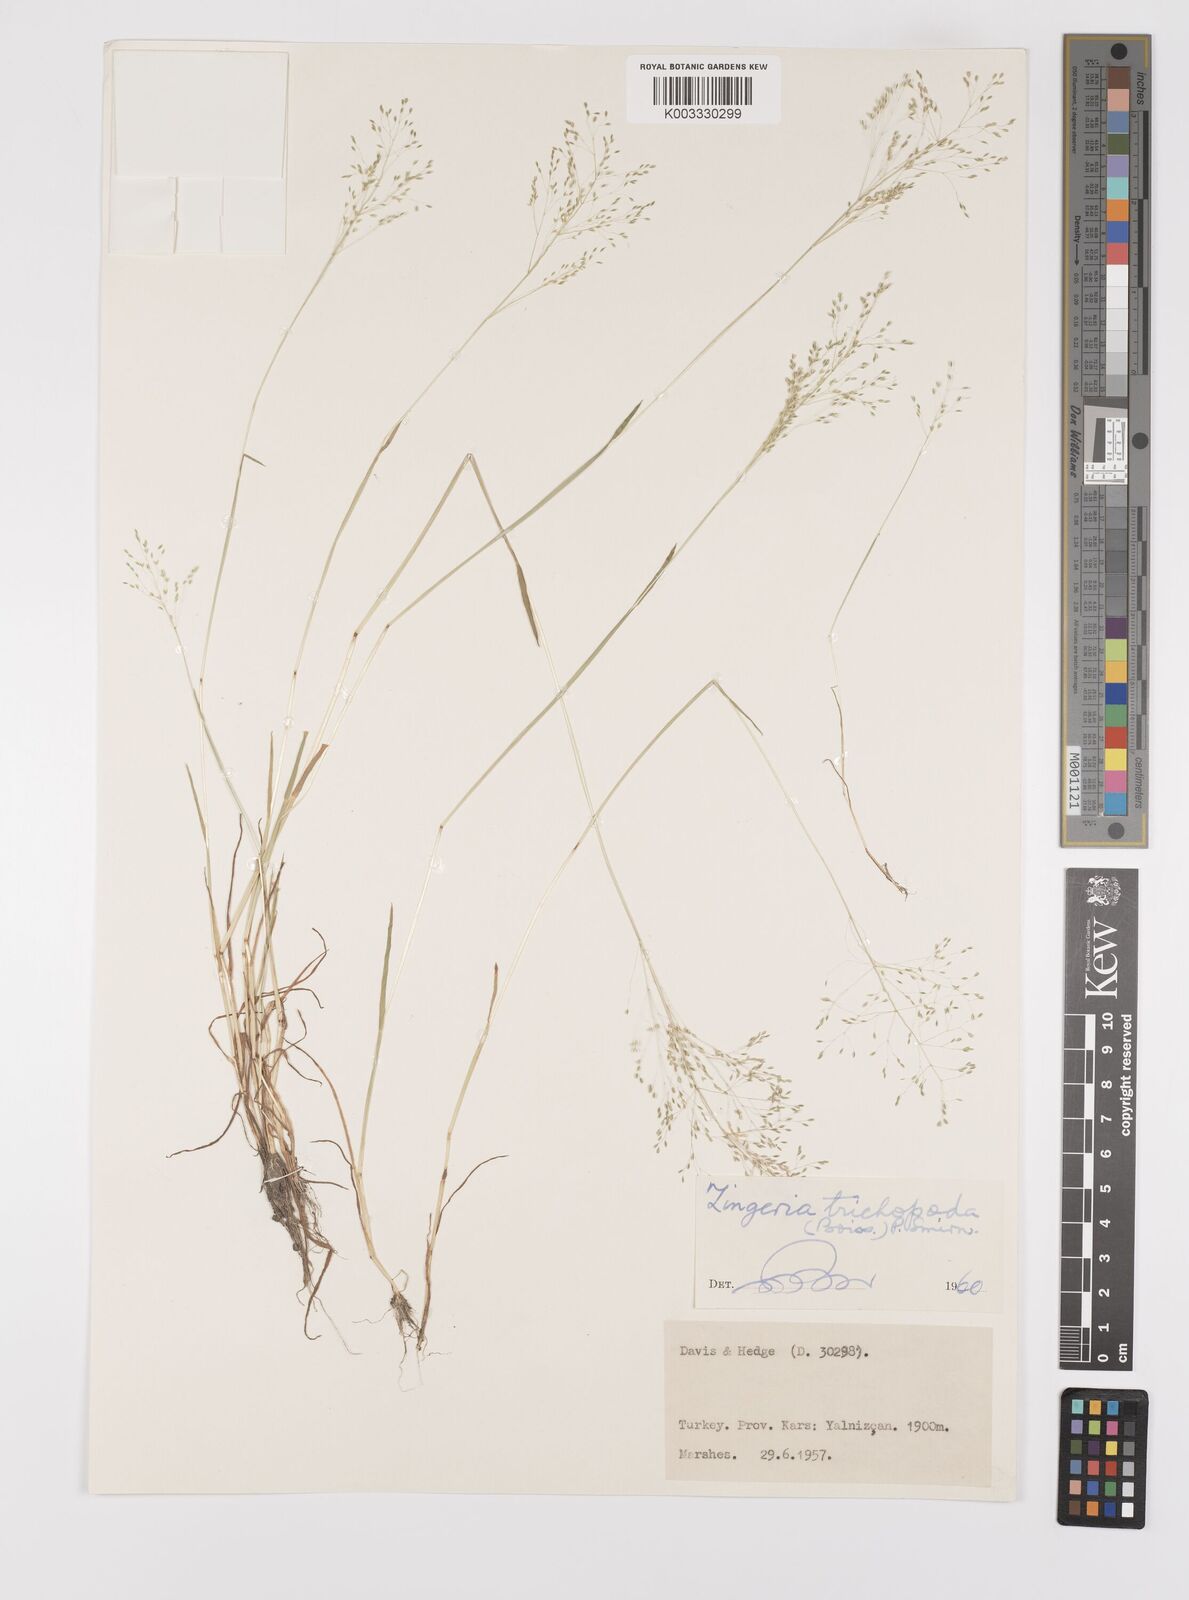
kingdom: Plantae
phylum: Tracheophyta
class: Liliopsida
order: Poales
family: Poaceae
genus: Colpodium
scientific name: Colpodium trichopodum
